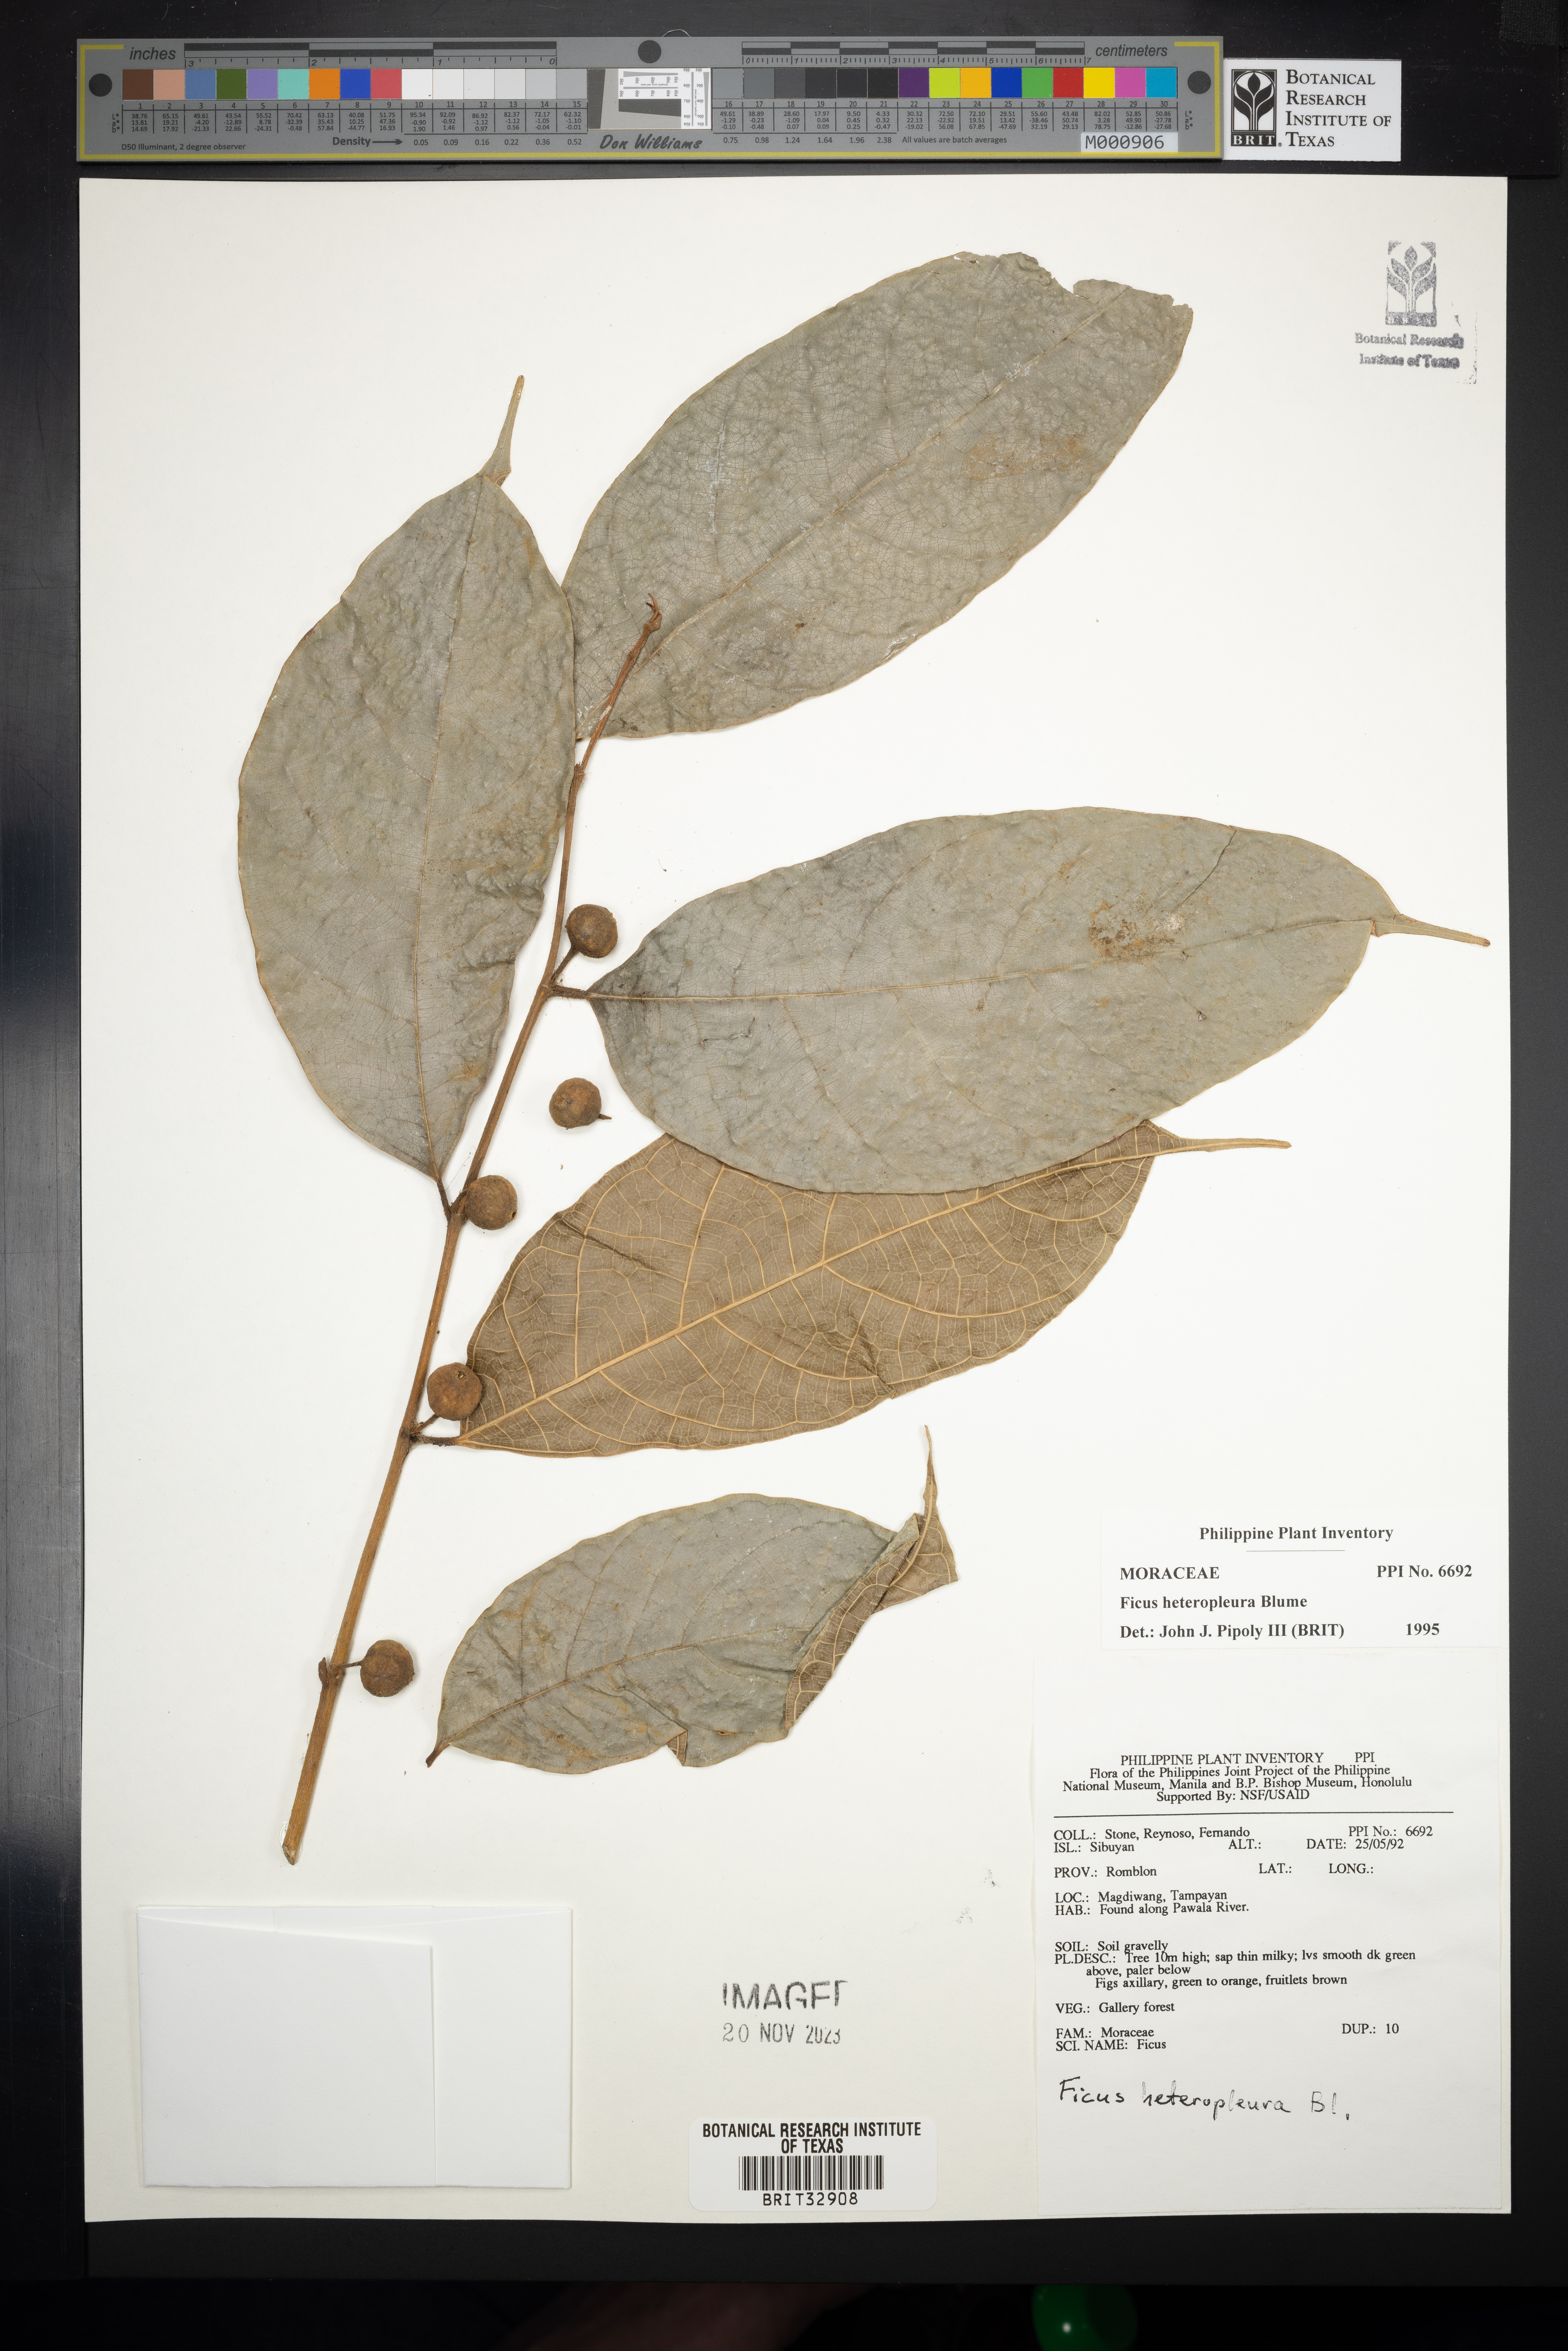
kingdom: Plantae
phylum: Tracheophyta
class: Magnoliopsida
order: Rosales
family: Moraceae
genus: Ficus
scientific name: Ficus heteropleura
